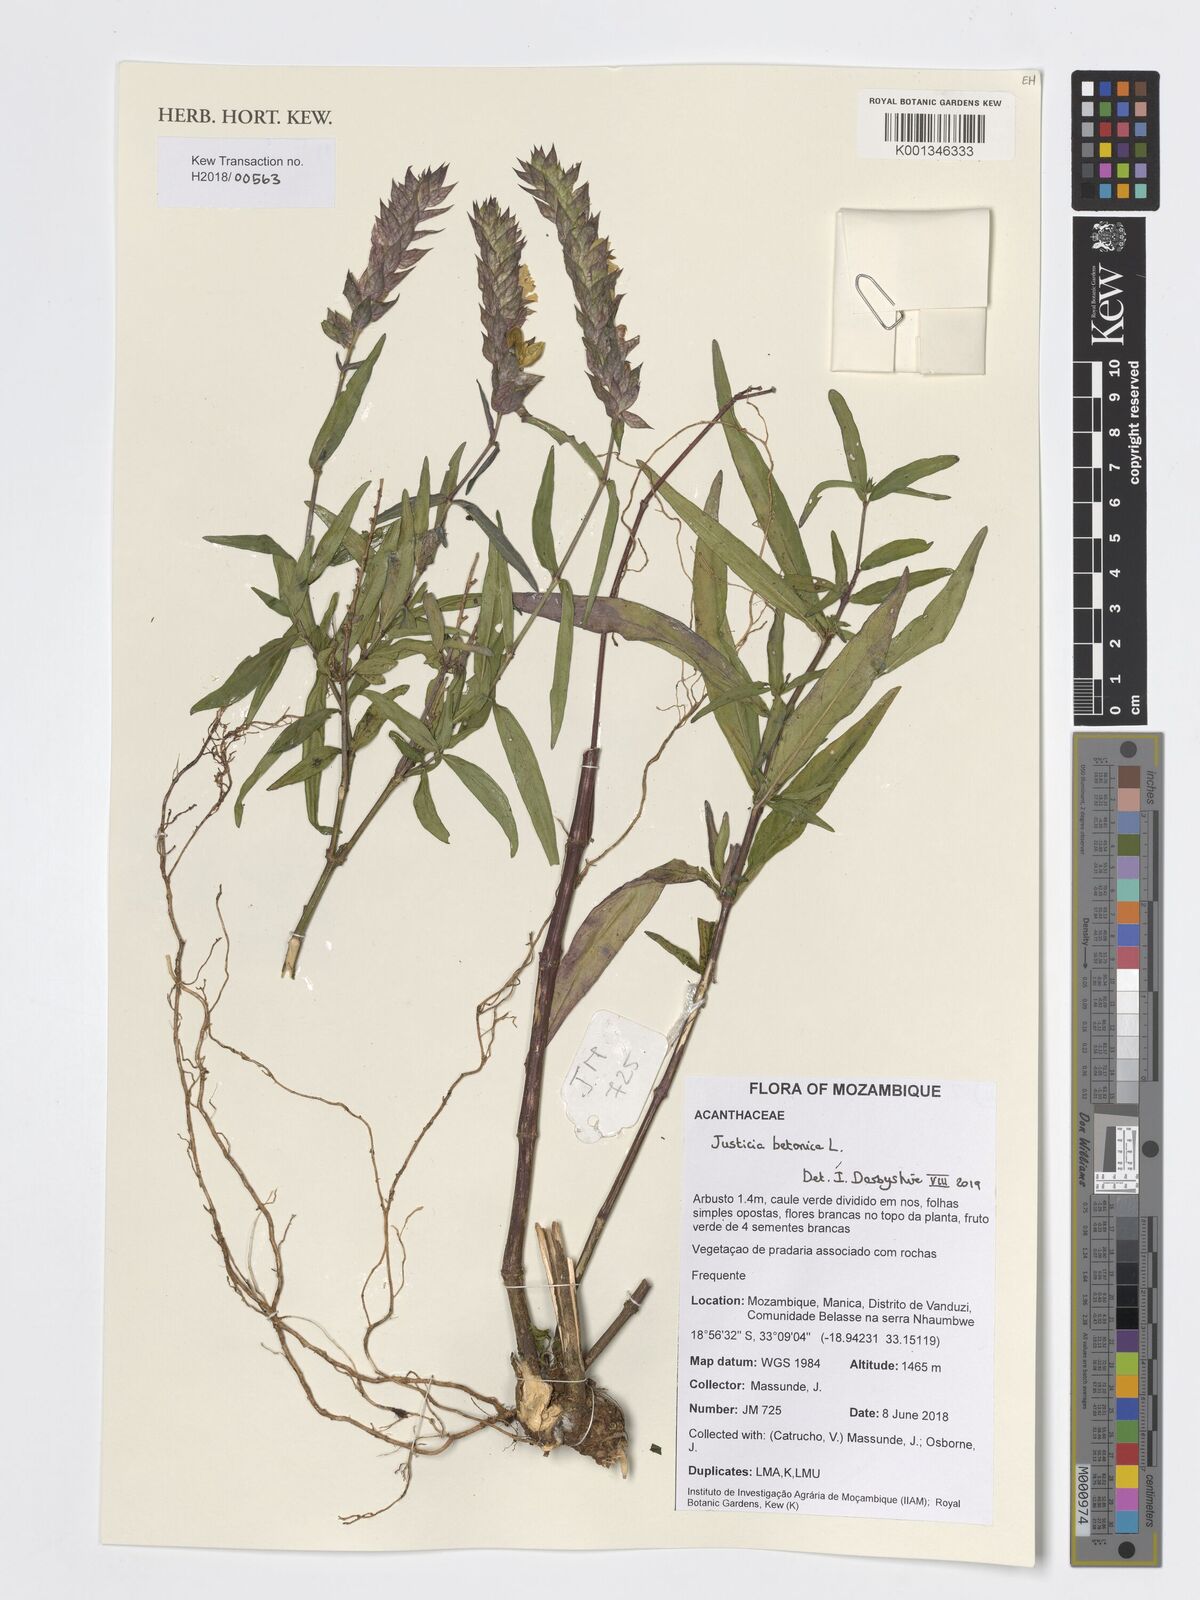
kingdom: Plantae
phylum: Tracheophyta
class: Magnoliopsida
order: Lamiales
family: Acanthaceae
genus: Nicoteba
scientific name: Nicoteba betonica
